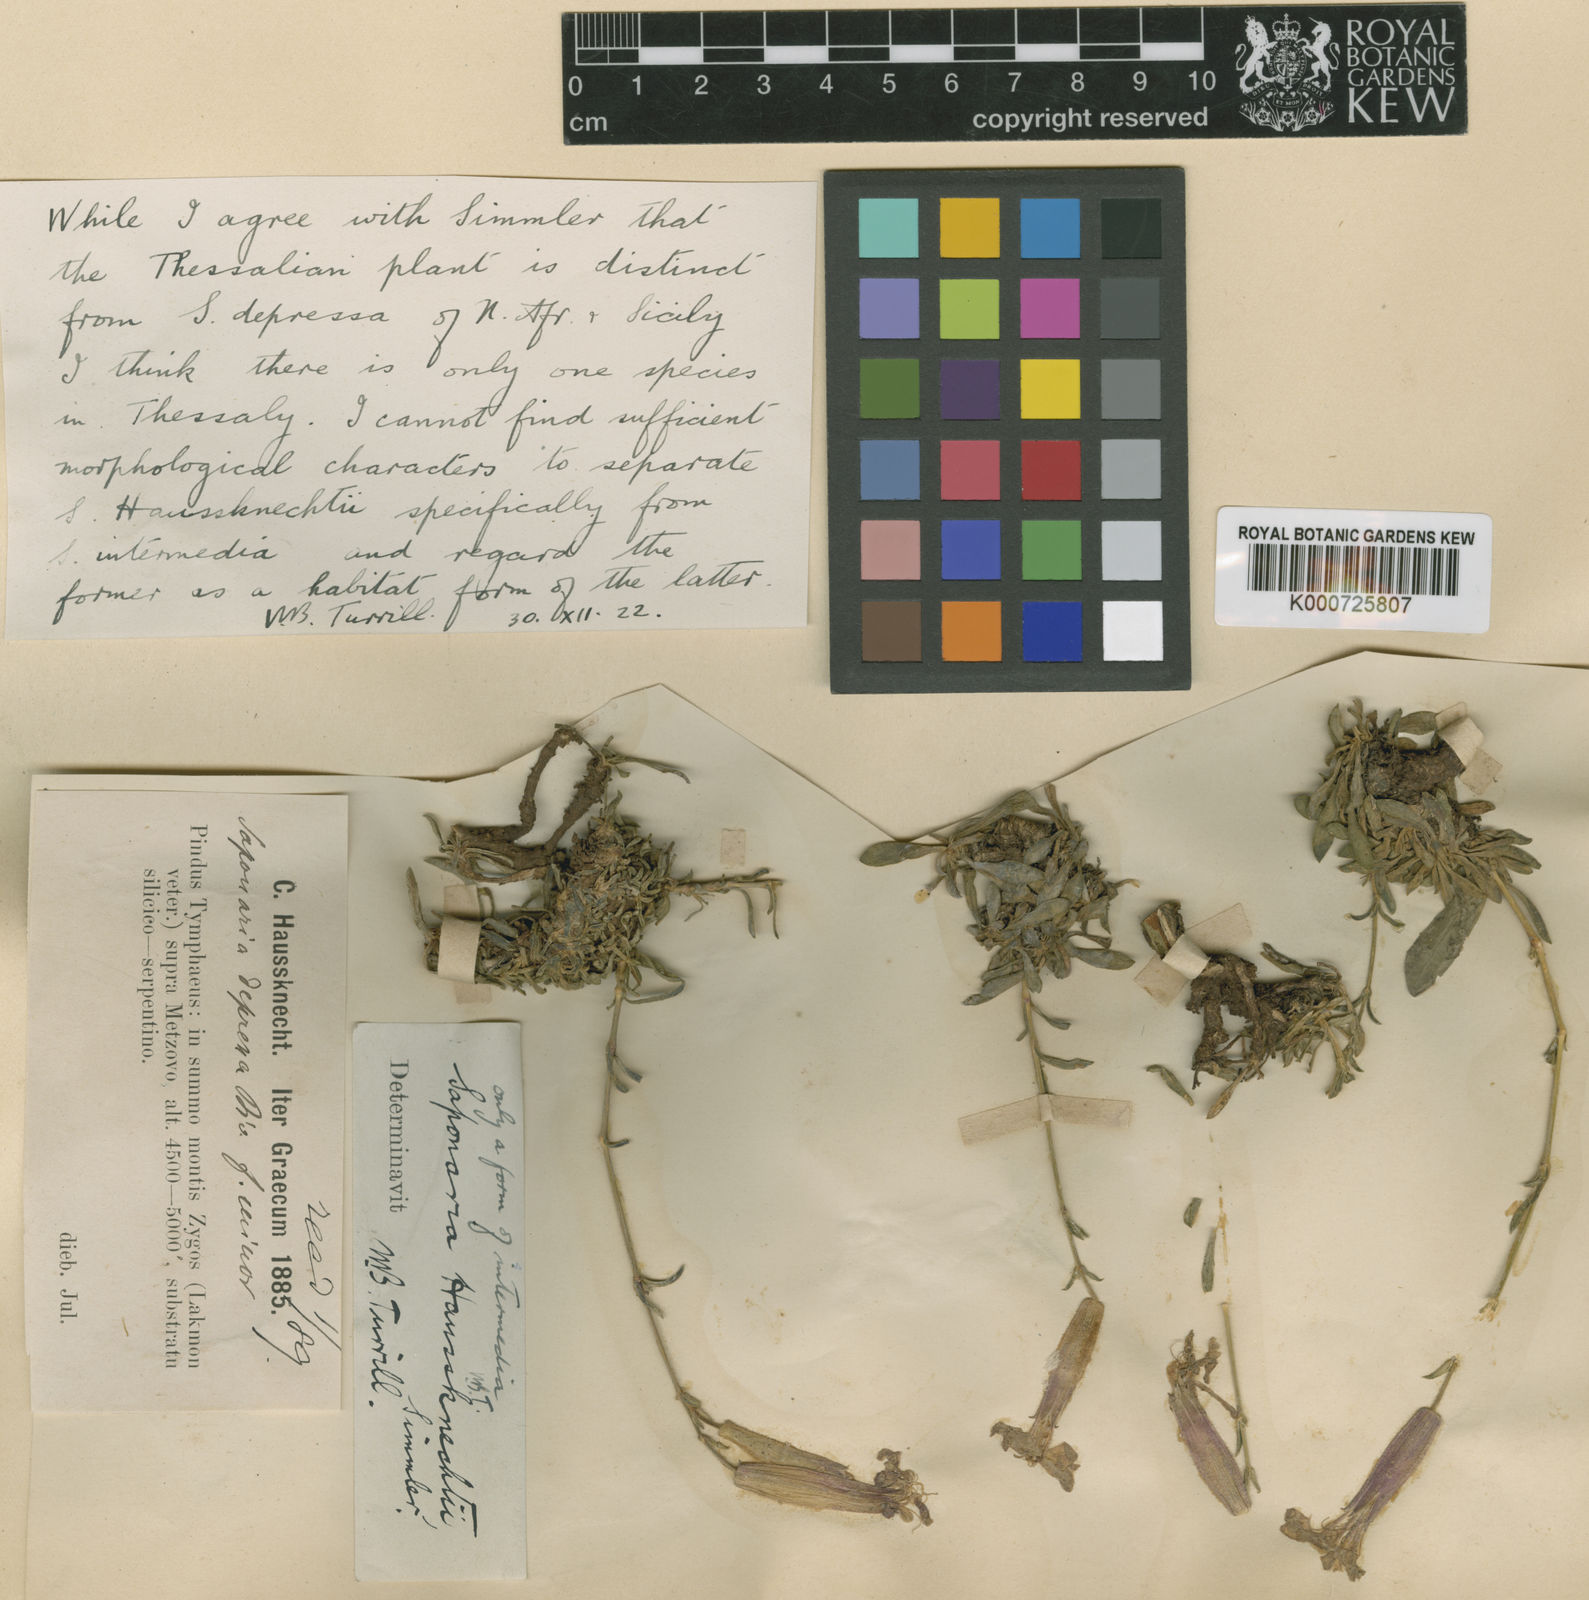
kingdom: Plantae
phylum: Tracheophyta
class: Magnoliopsida
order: Caryophyllales
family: Caryophyllaceae
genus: Saponaria
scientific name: Saponaria intermedia
